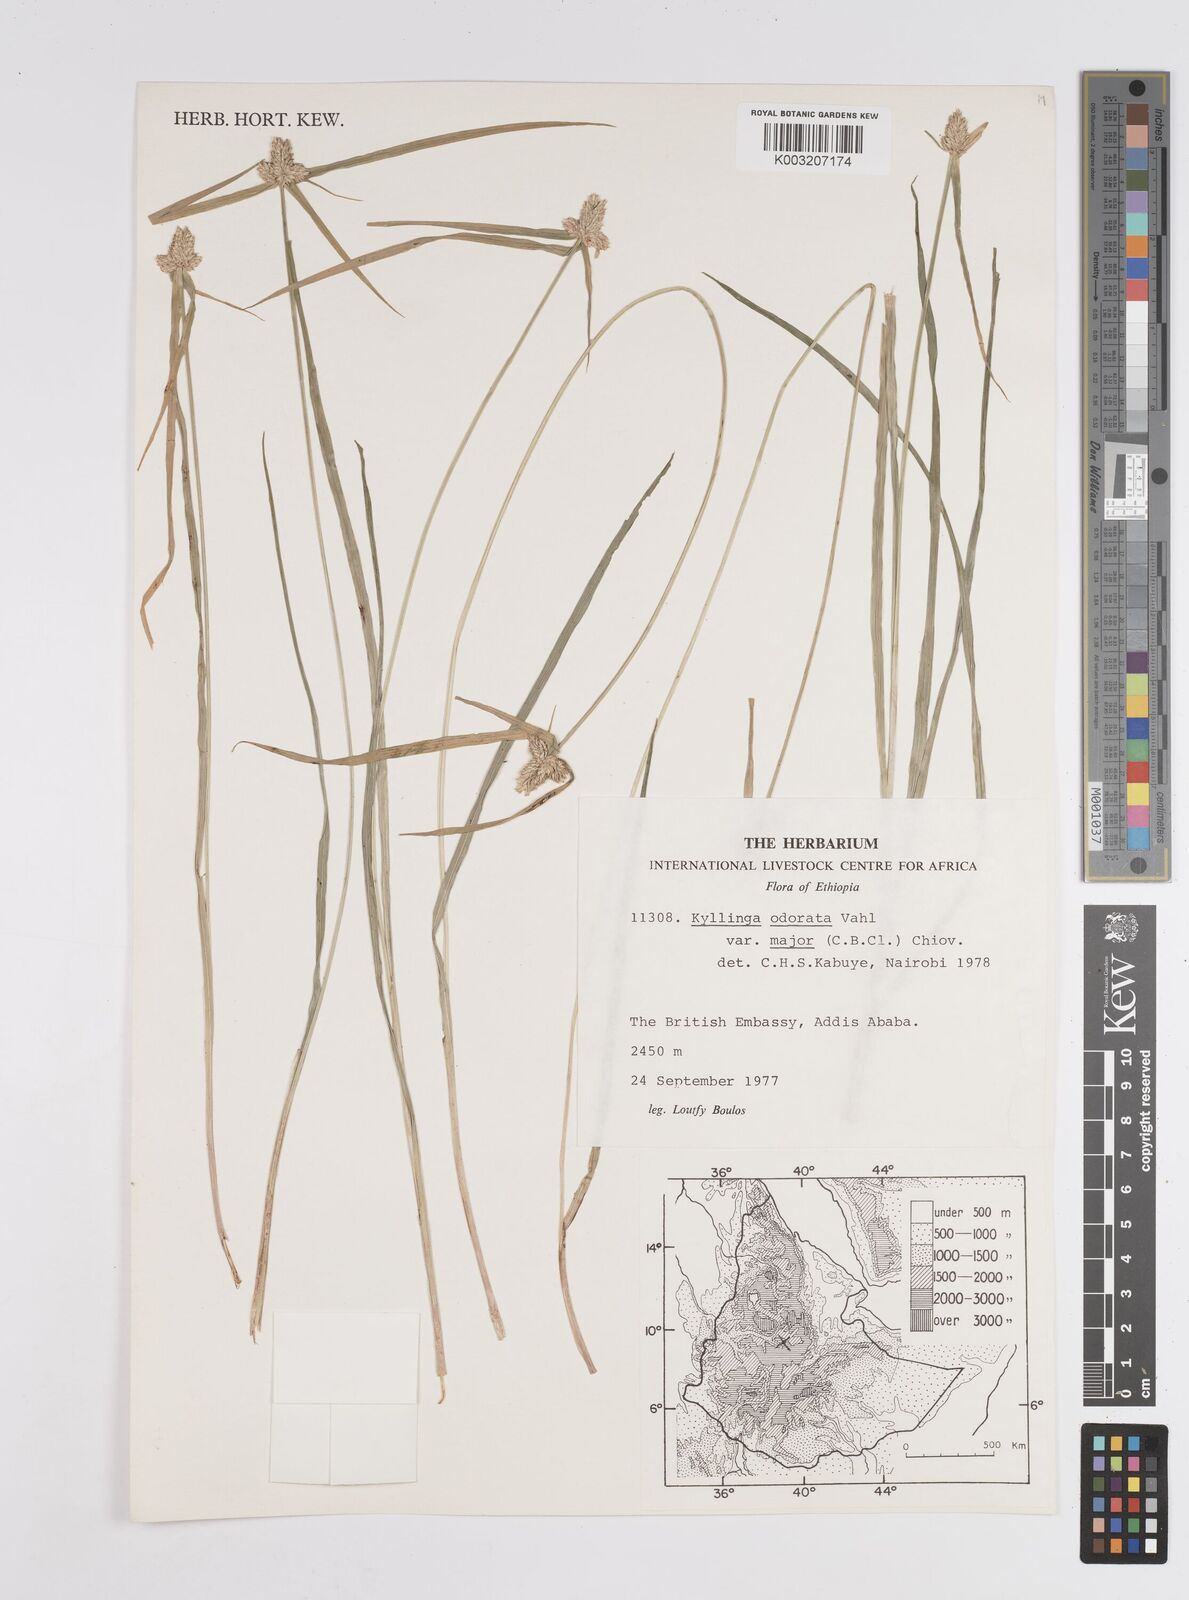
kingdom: Plantae
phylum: Tracheophyta
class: Liliopsida
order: Poales
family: Cyperaceae
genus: Cyperus
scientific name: Cyperus
